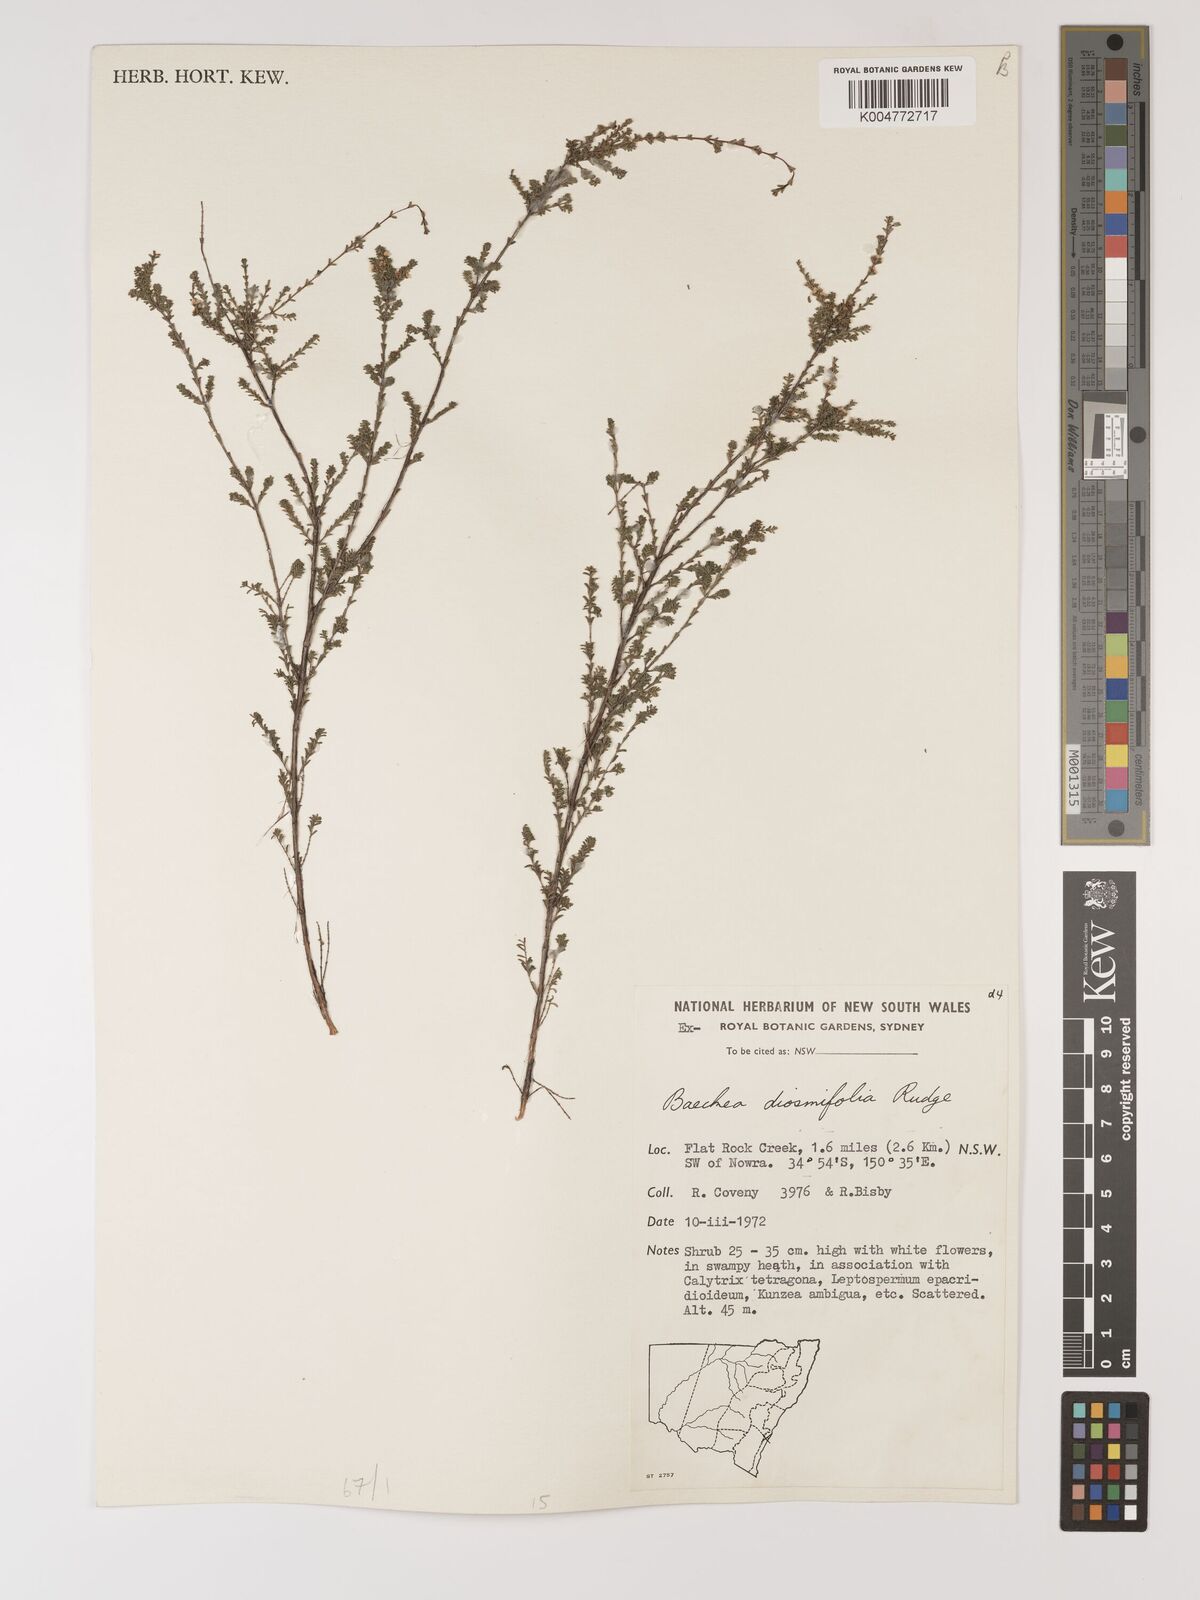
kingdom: Plantae
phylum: Tracheophyta
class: Magnoliopsida
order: Myrtales
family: Myrtaceae
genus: Baeckea
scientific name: Baeckea diosmifolia
